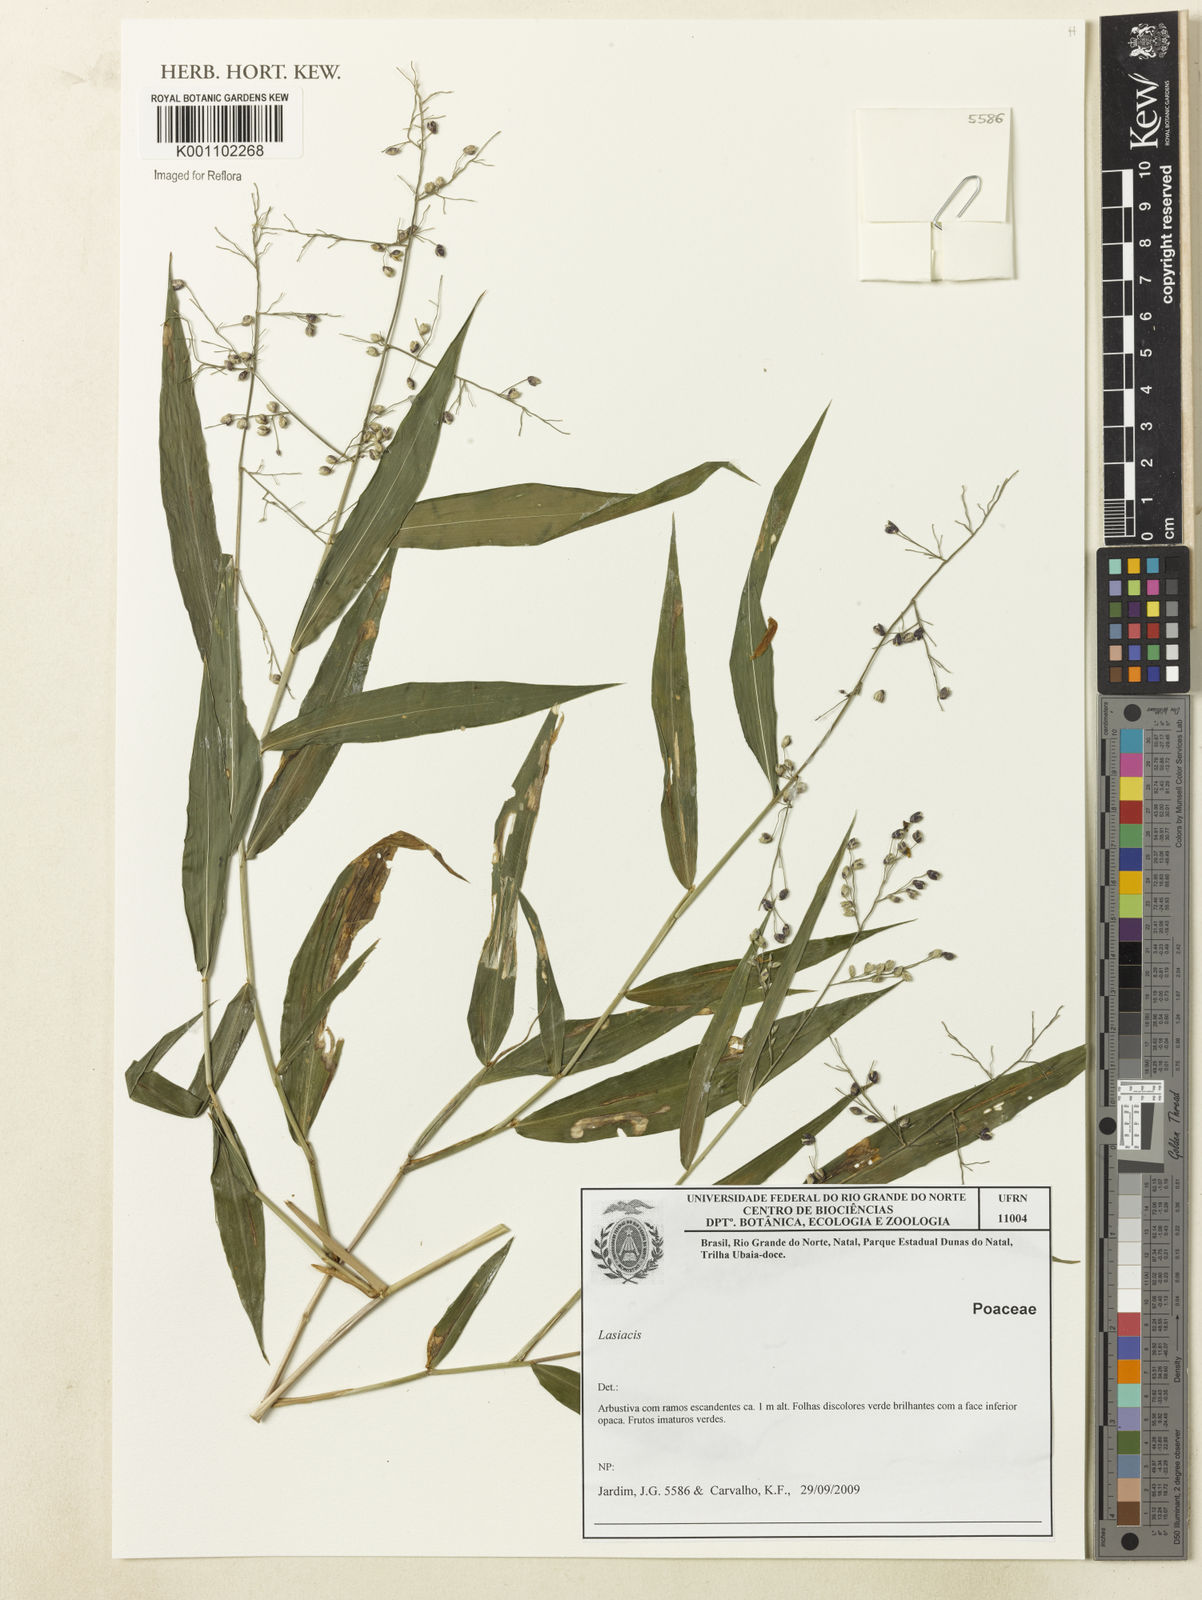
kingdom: Plantae
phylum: Tracheophyta
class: Liliopsida
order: Poales
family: Poaceae
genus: Lasiacis
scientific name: Lasiacis
